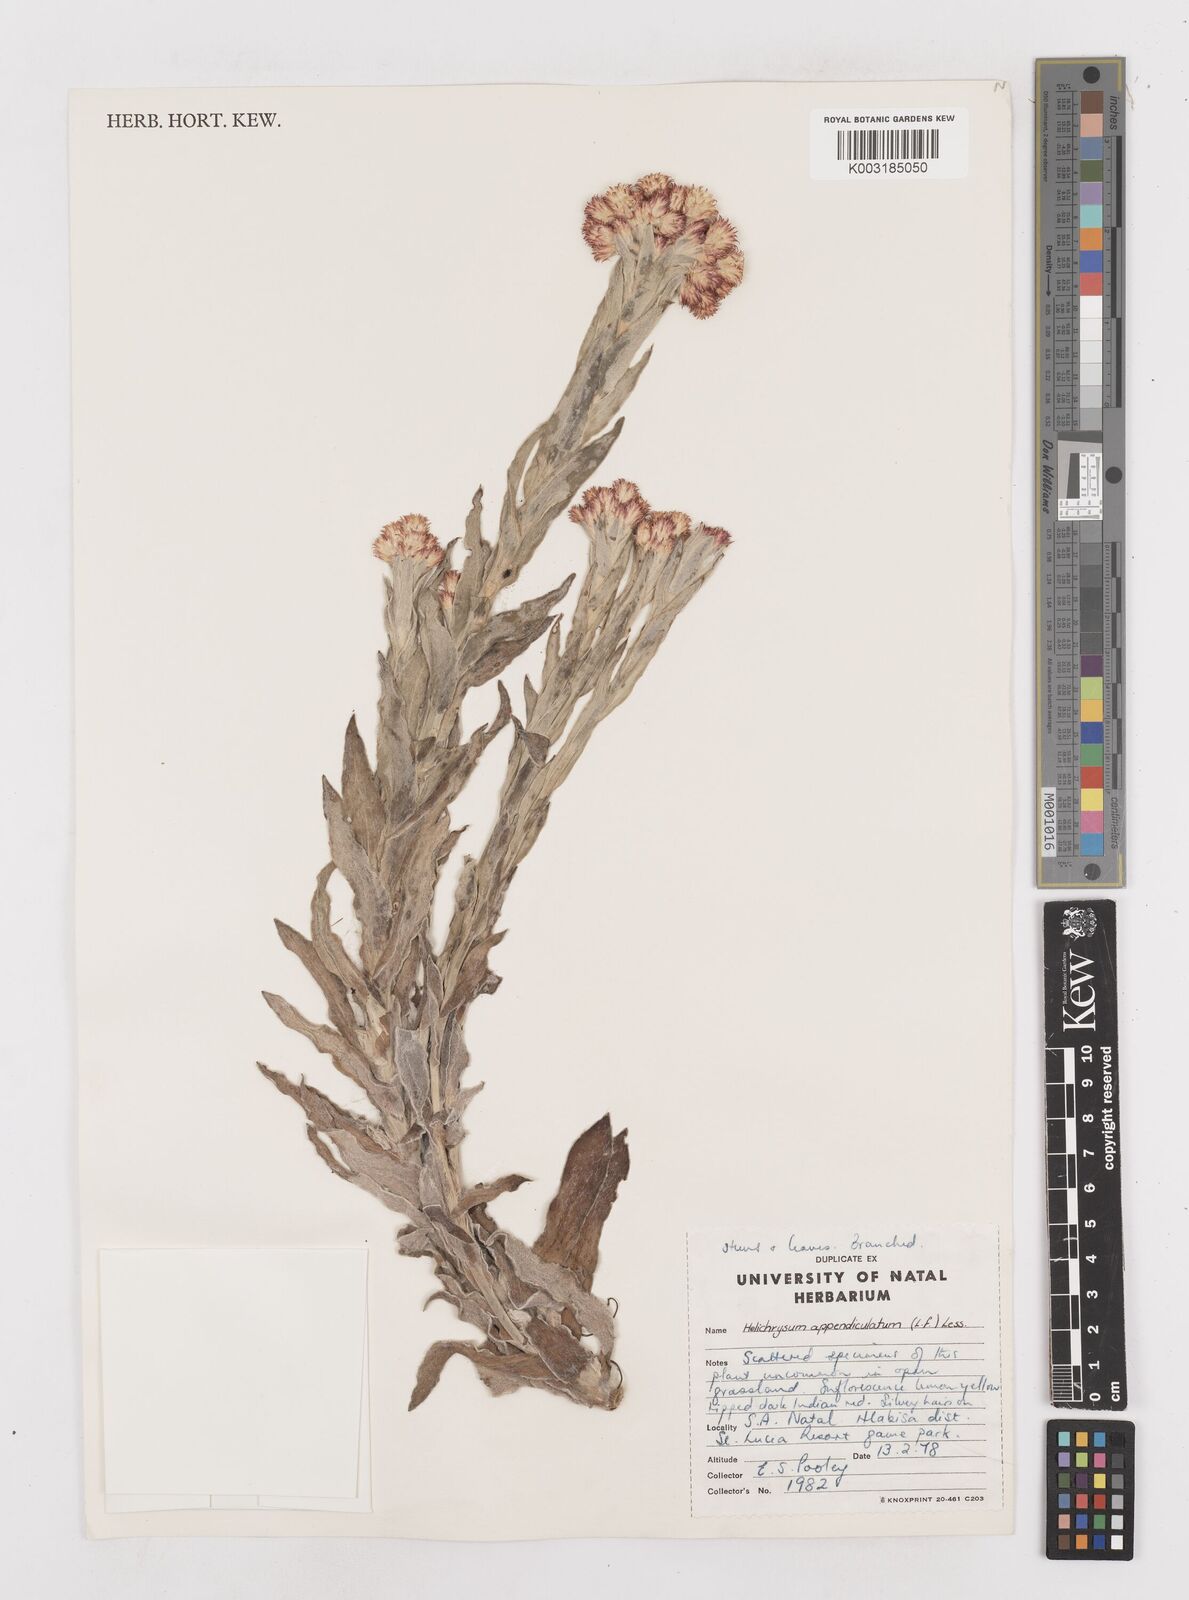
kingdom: Plantae
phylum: Tracheophyta
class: Magnoliopsida
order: Asterales
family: Asteraceae
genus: Helichrysum
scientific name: Helichrysum appendiculatum
